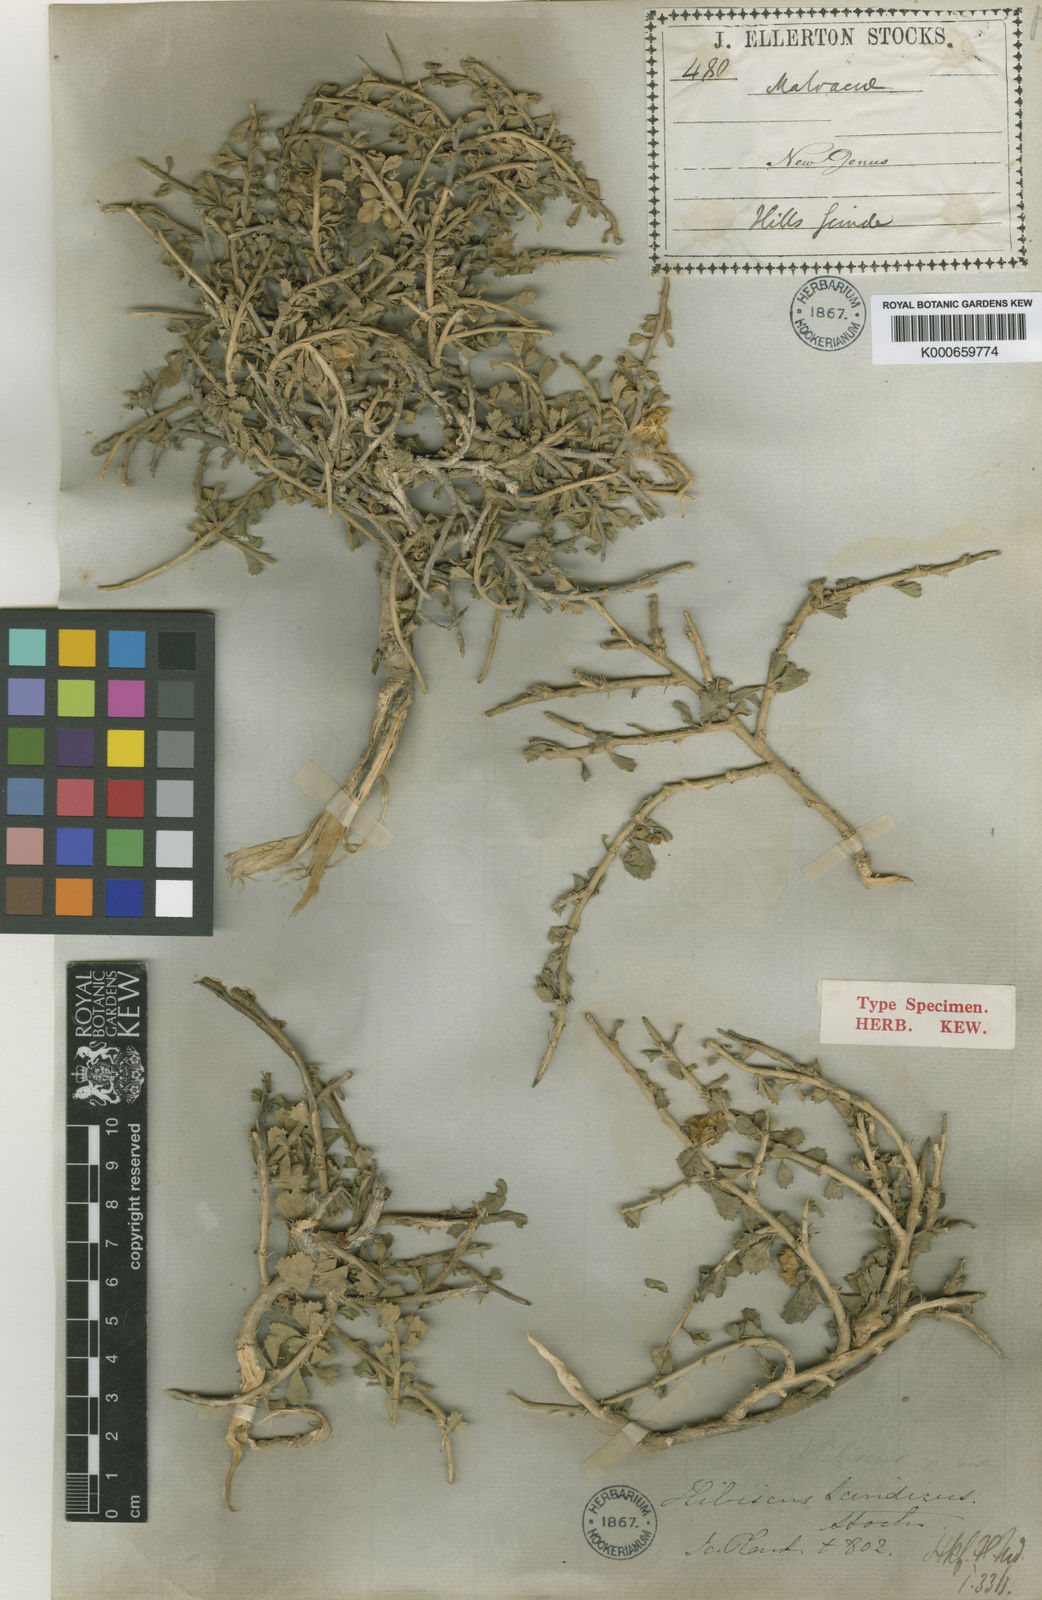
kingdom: Plantae
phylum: Tracheophyta
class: Magnoliopsida
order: Malvales
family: Malvaceae
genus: Hibiscus
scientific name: Hibiscus scindicus
